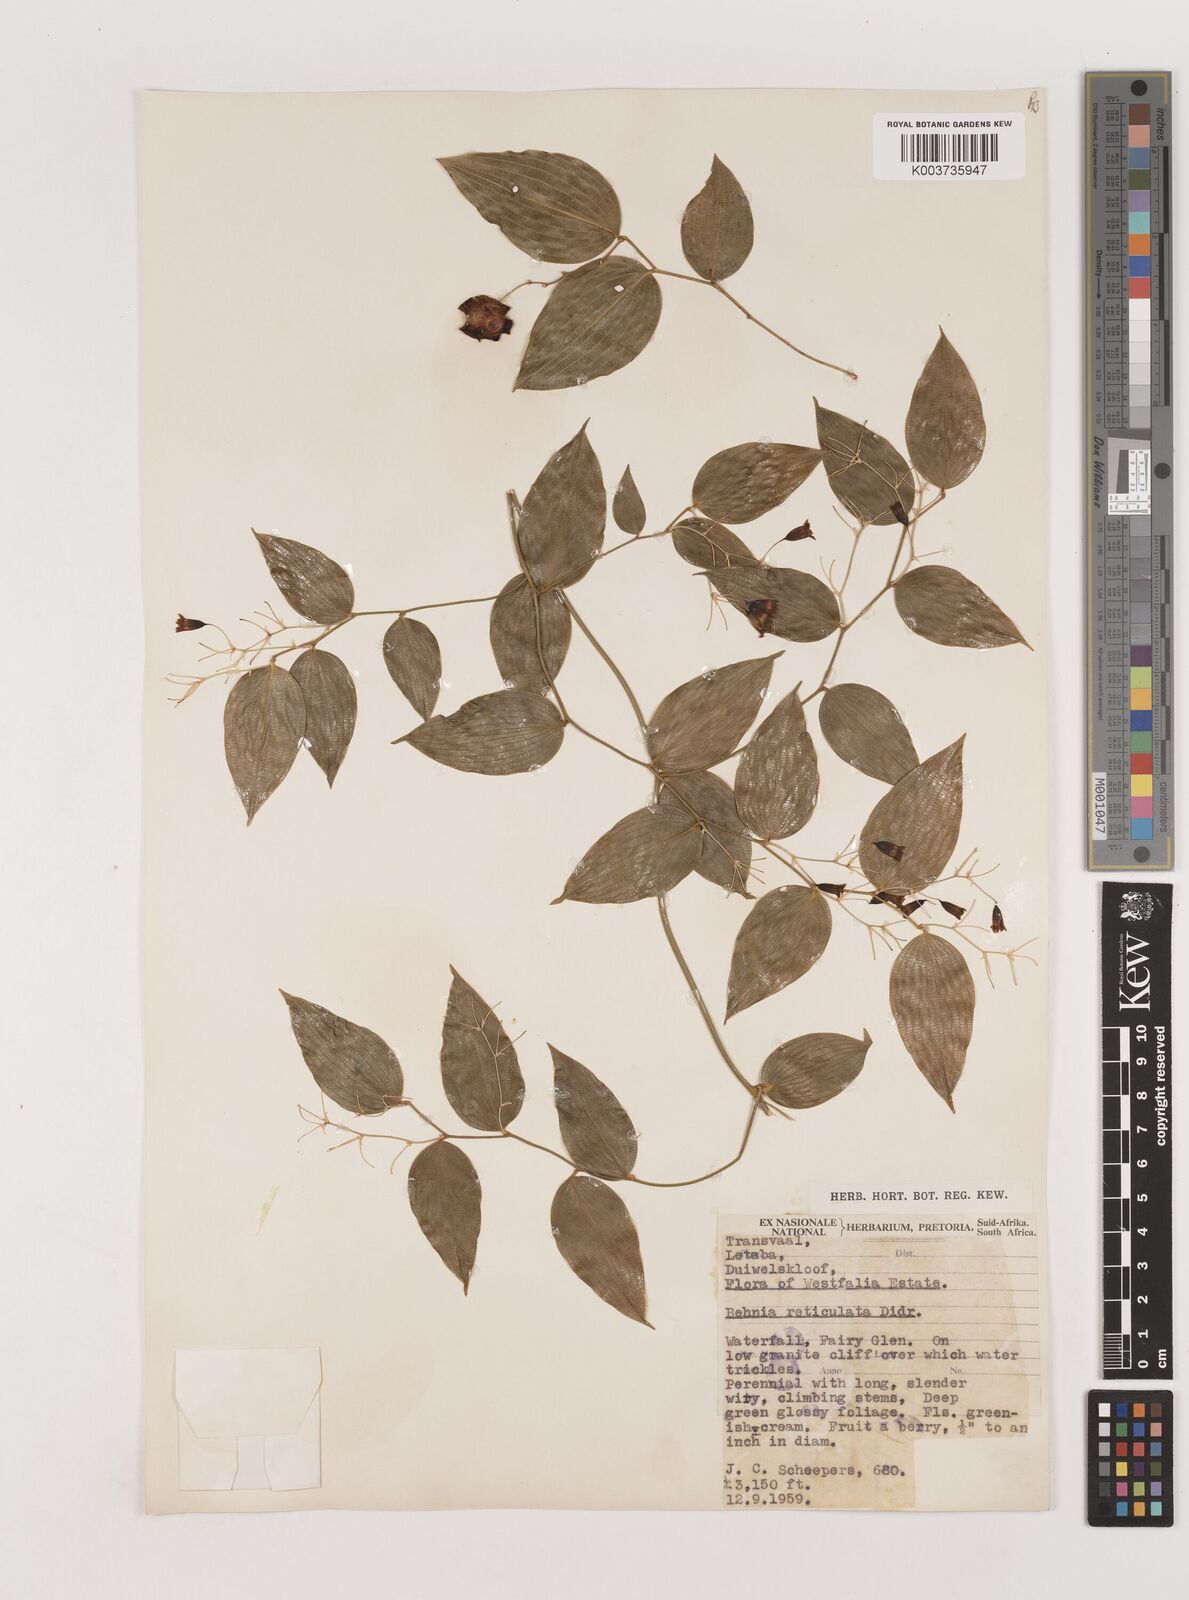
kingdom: Plantae
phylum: Tracheophyta
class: Liliopsida
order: Asparagales
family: Asparagaceae
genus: Behnia
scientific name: Behnia reticulata
